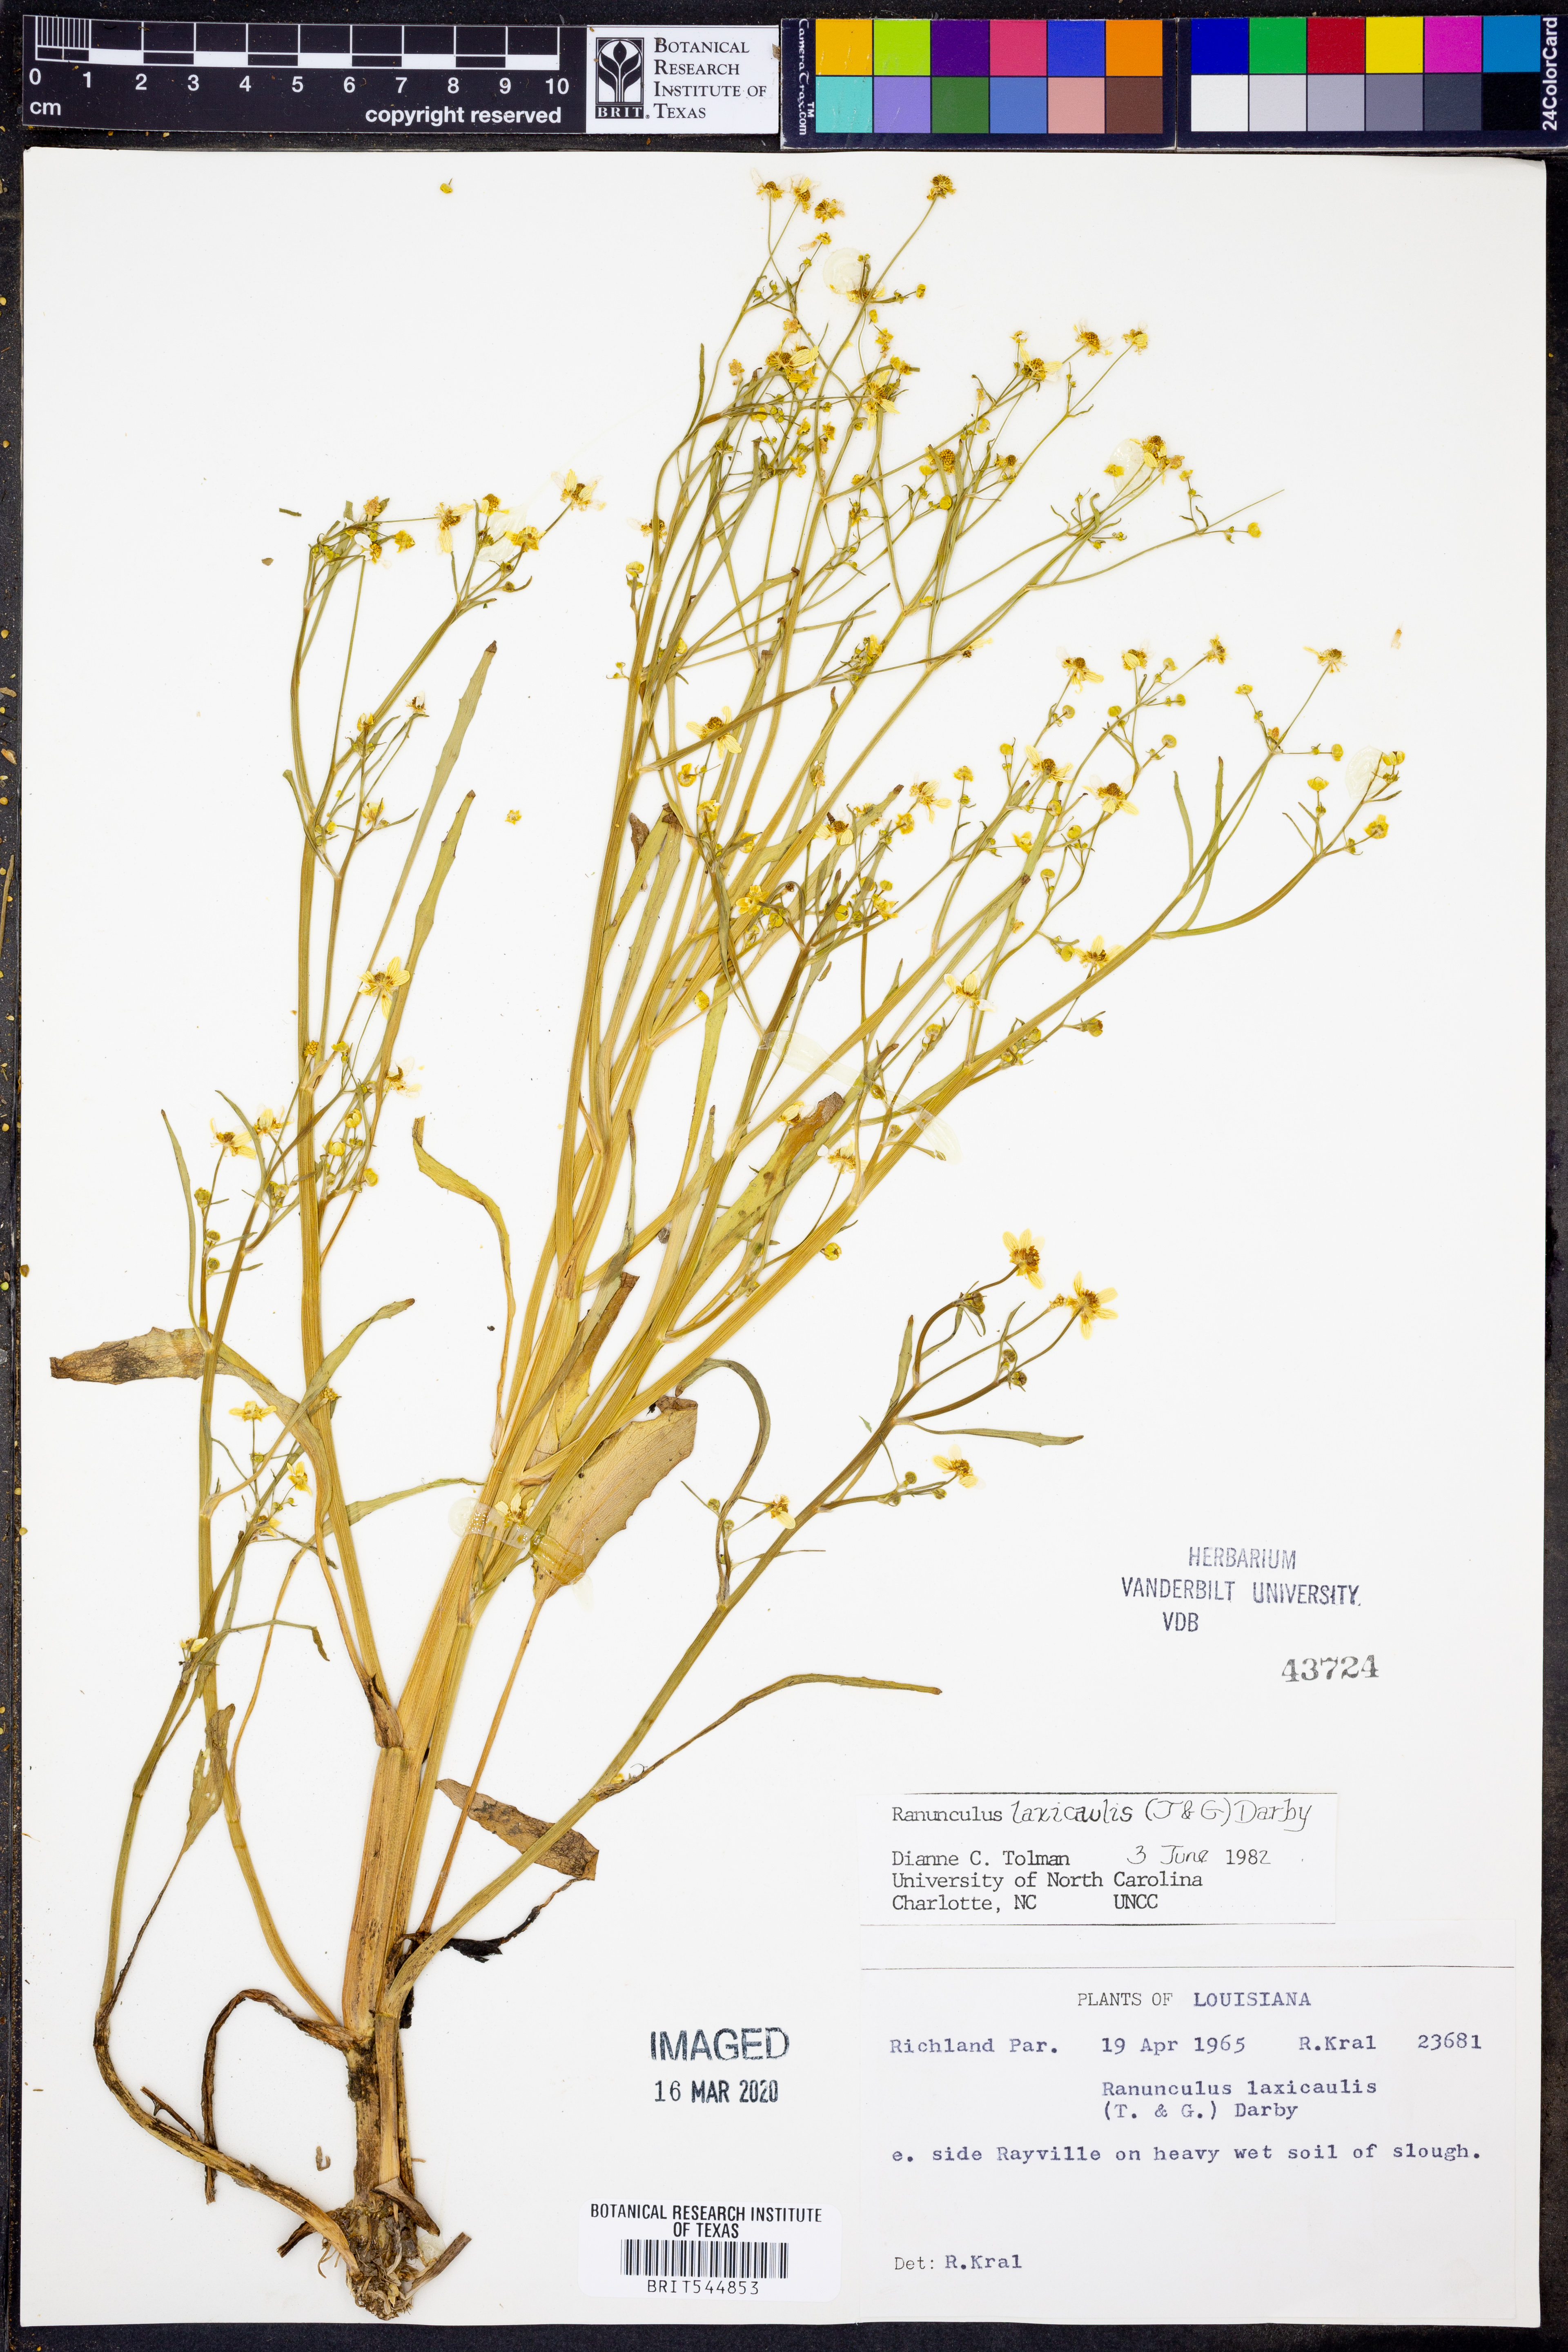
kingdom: Plantae
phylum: Tracheophyta
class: Magnoliopsida
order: Ranunculales
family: Ranunculaceae
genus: Ranunculus
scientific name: Ranunculus laxicaulis
